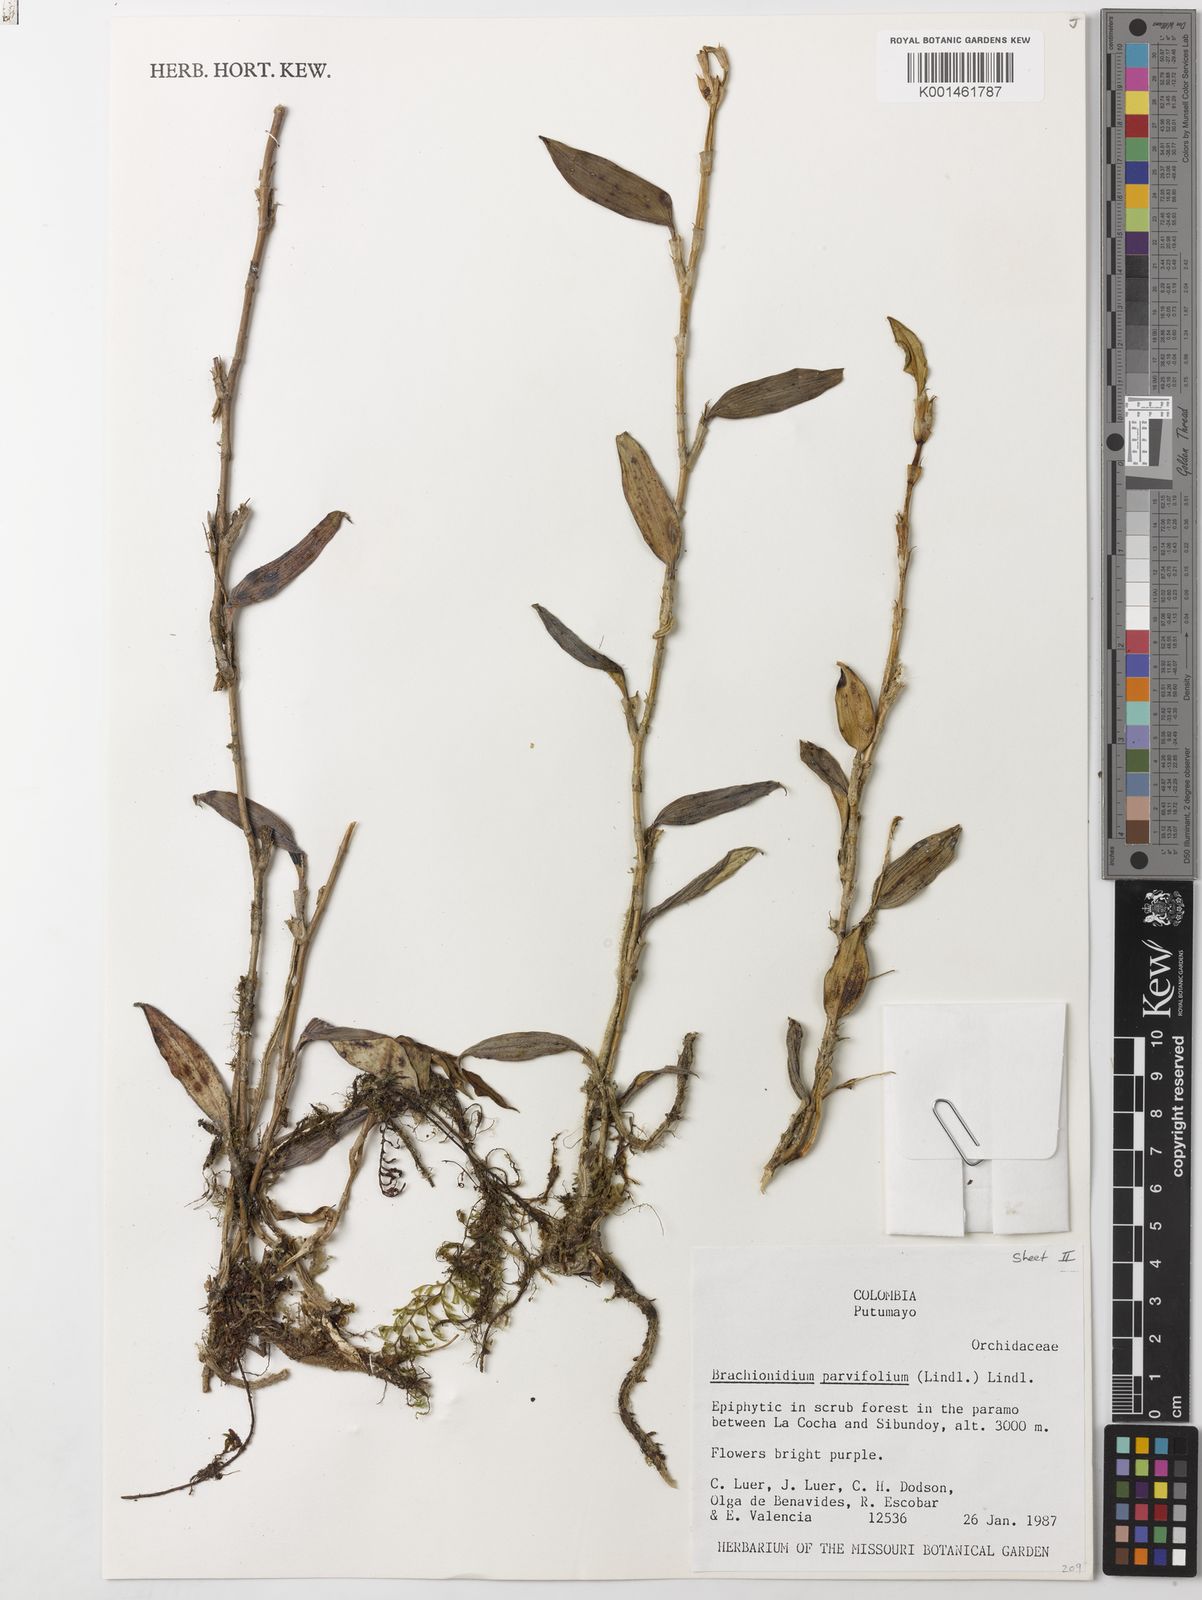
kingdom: Plantae
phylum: Tracheophyta
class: Liliopsida
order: Asparagales
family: Orchidaceae
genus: Brachionidium
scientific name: Brachionidium parvifolium
